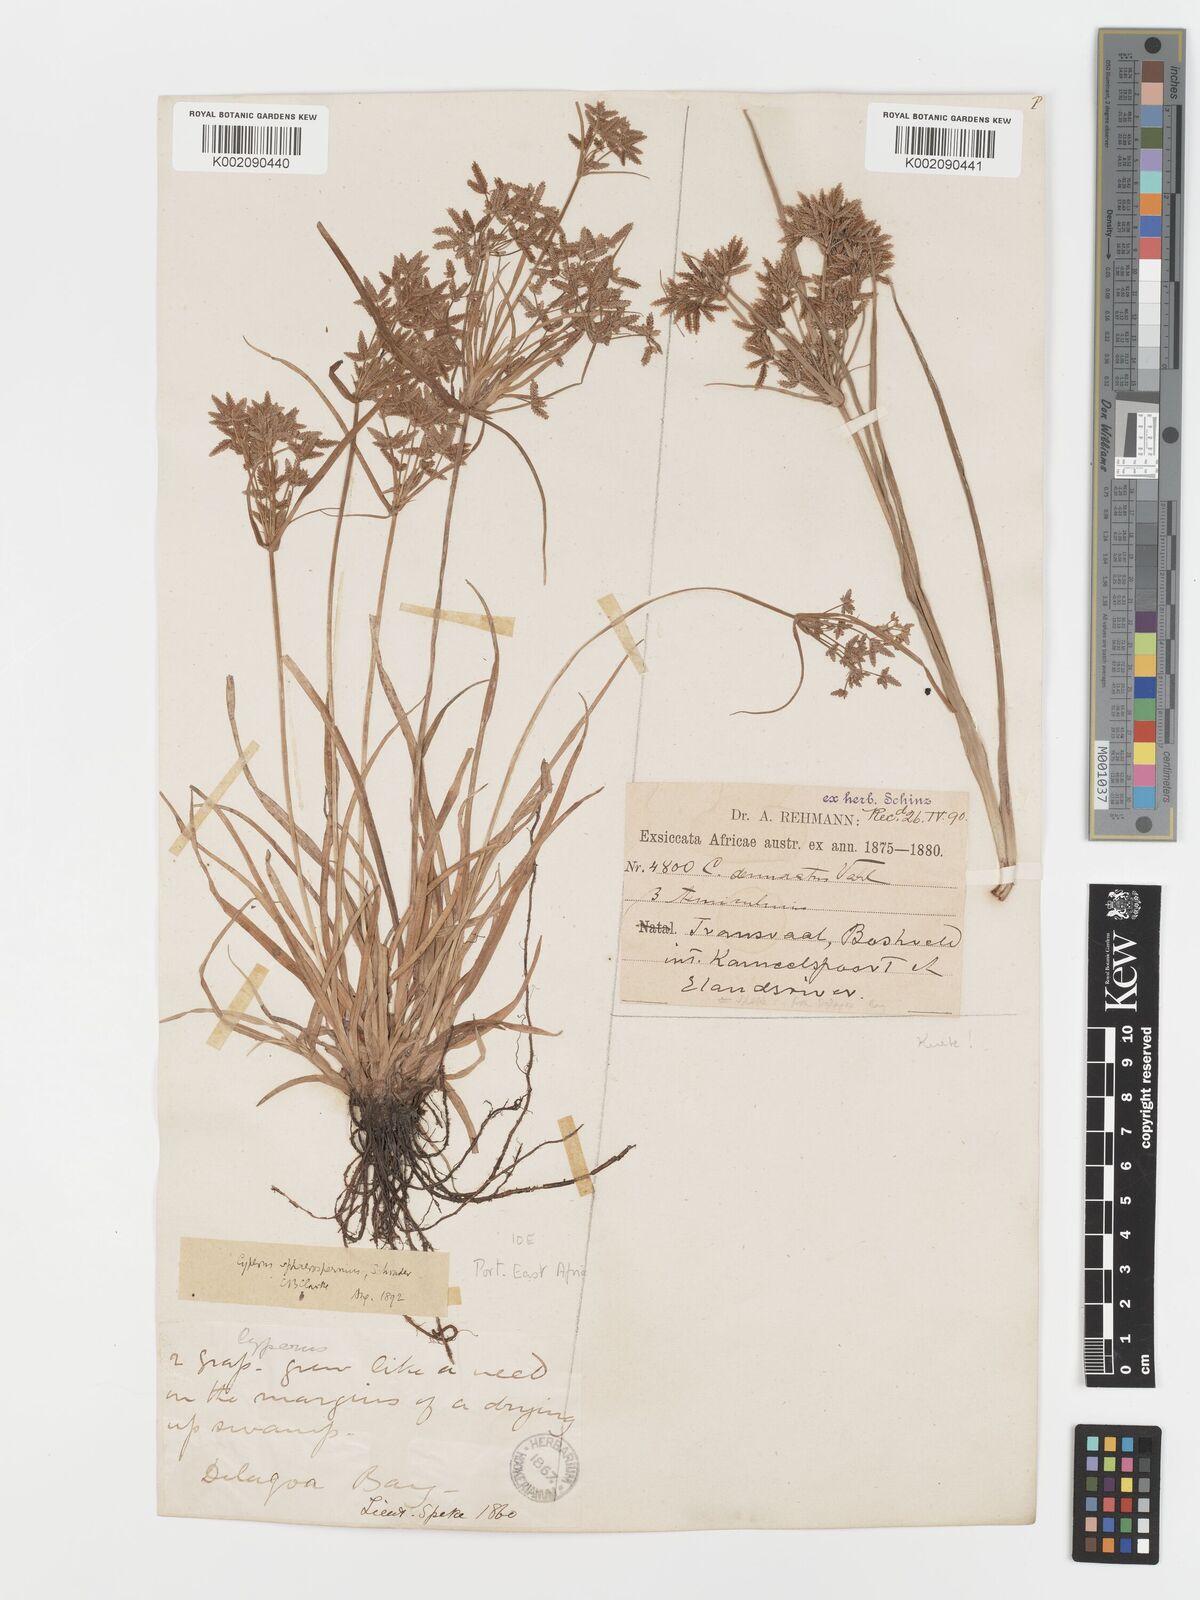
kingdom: Plantae
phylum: Tracheophyta
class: Liliopsida
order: Poales
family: Cyperaceae
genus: Cyperus
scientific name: Cyperus sphaerospermus
